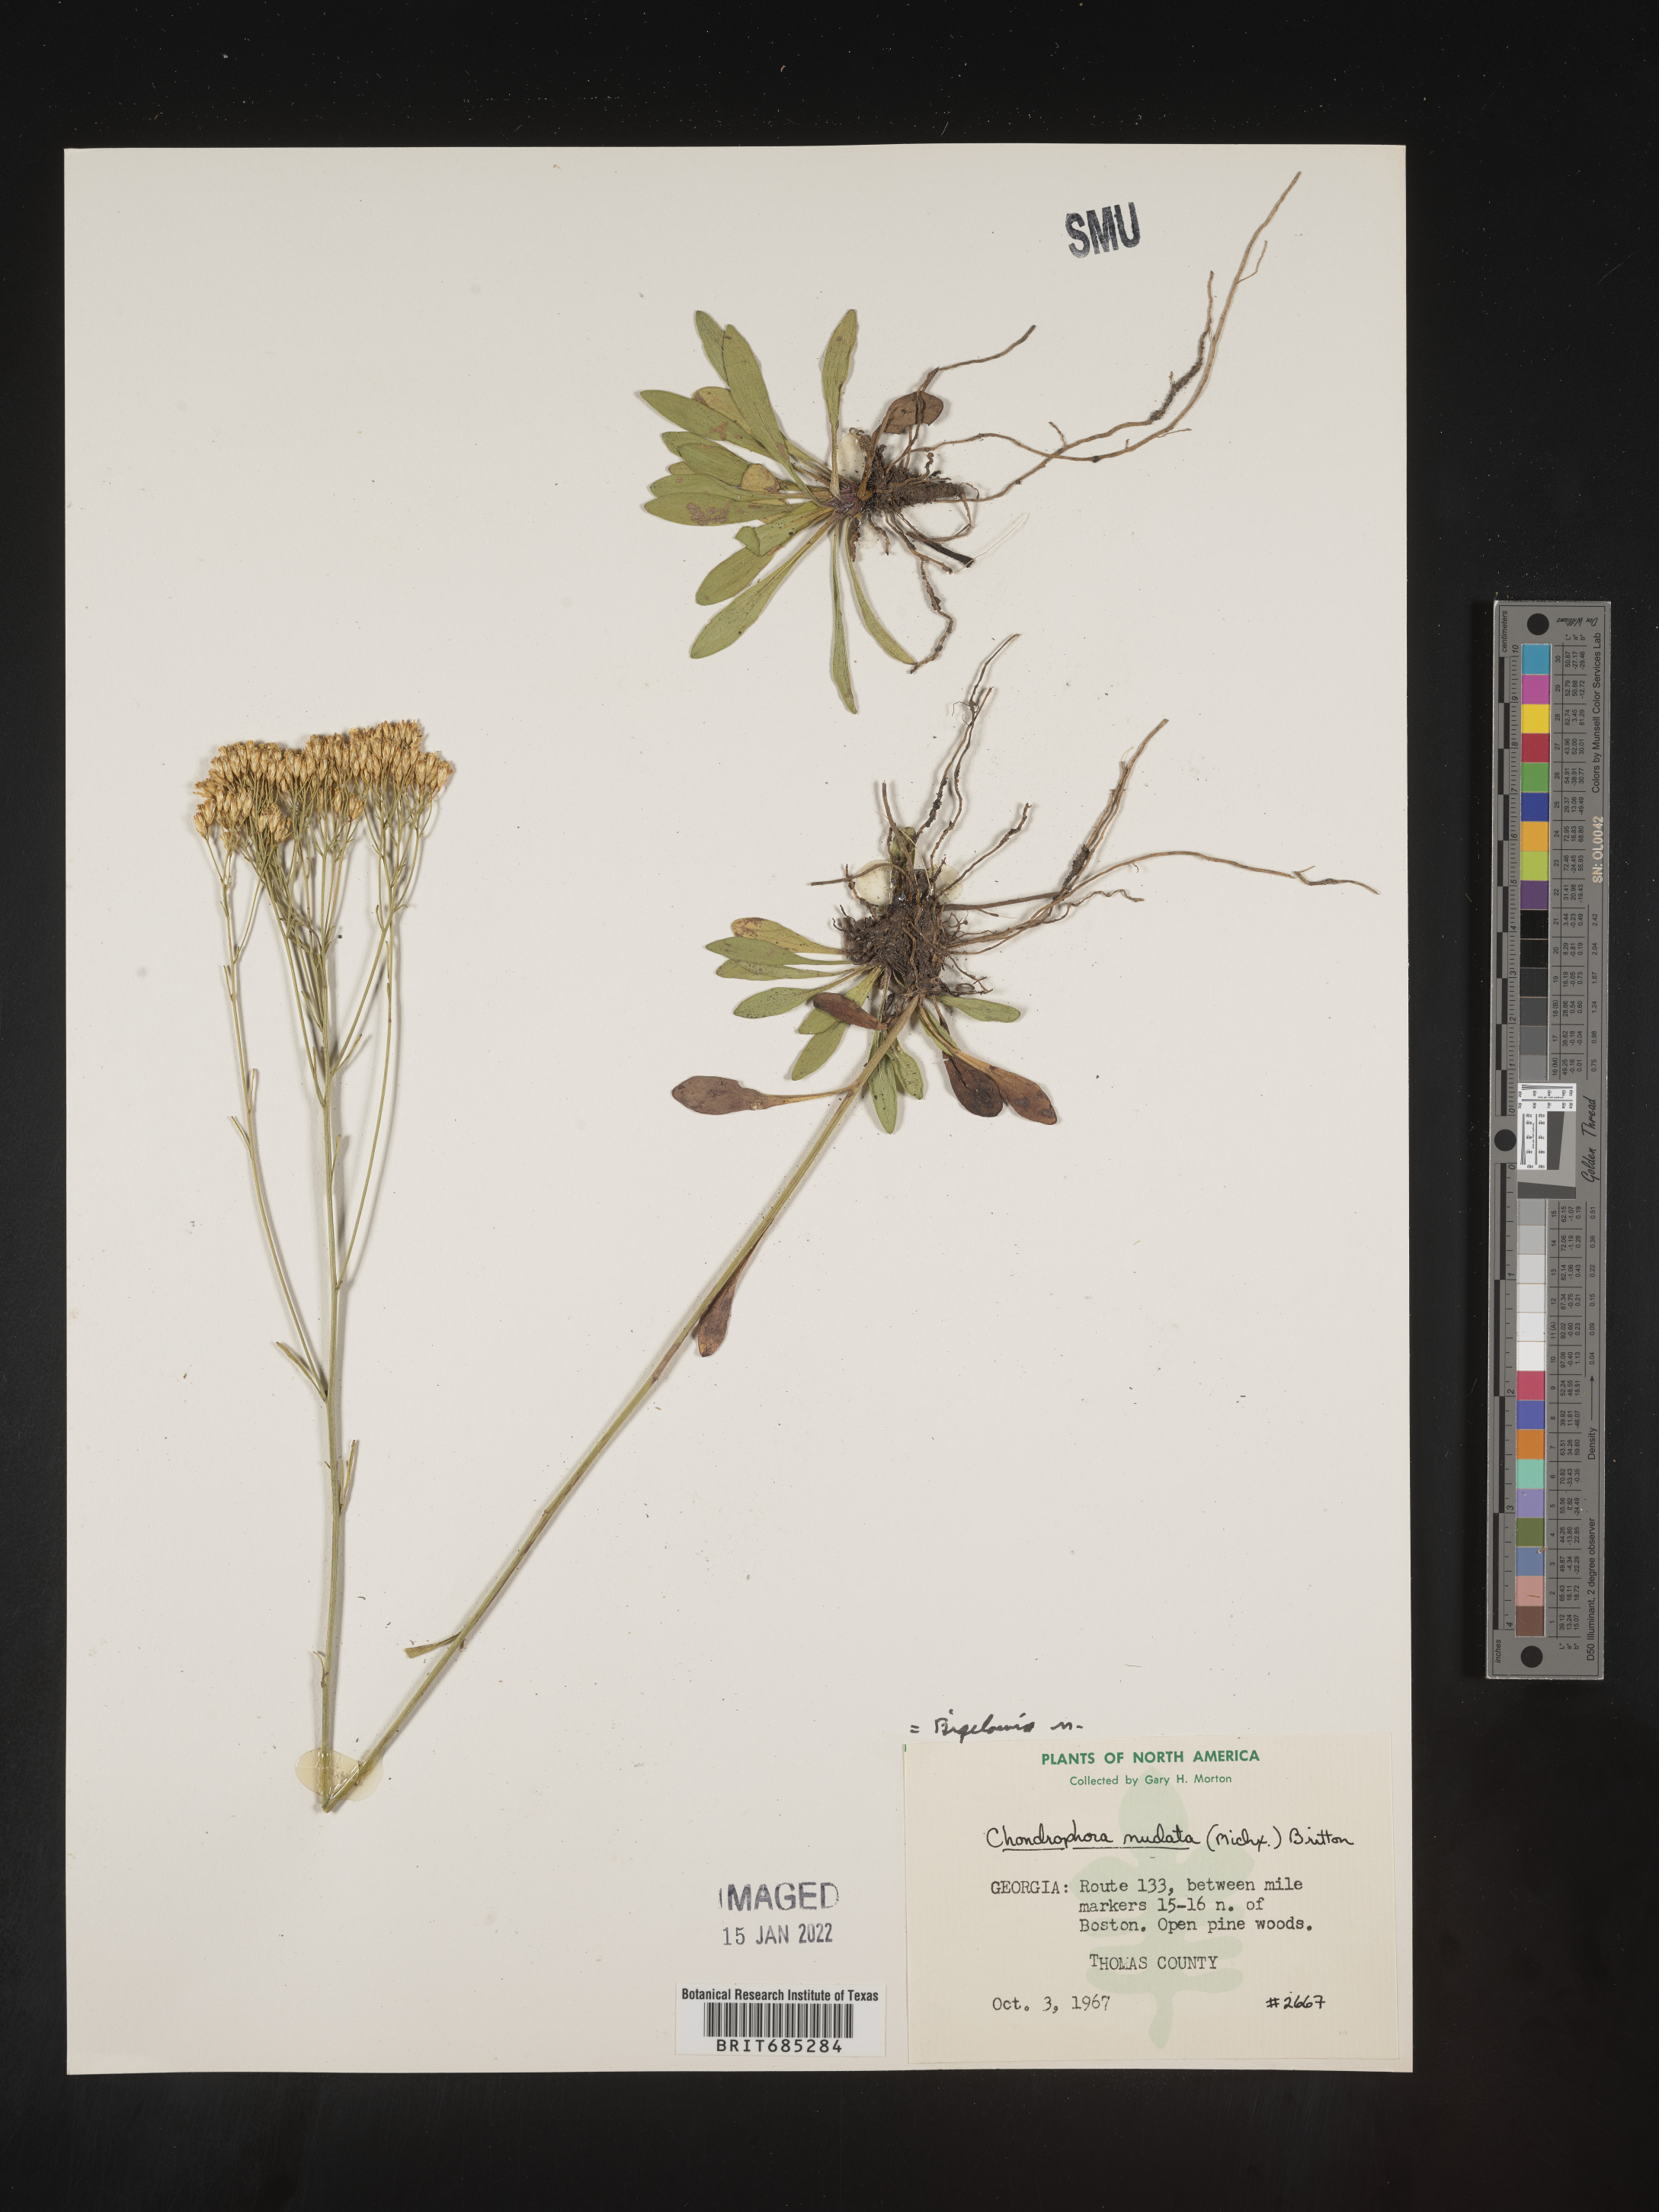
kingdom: Plantae
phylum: Tracheophyta
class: Magnoliopsida
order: Asterales
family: Asteraceae
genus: Bigelowia
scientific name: Bigelowia nudata
